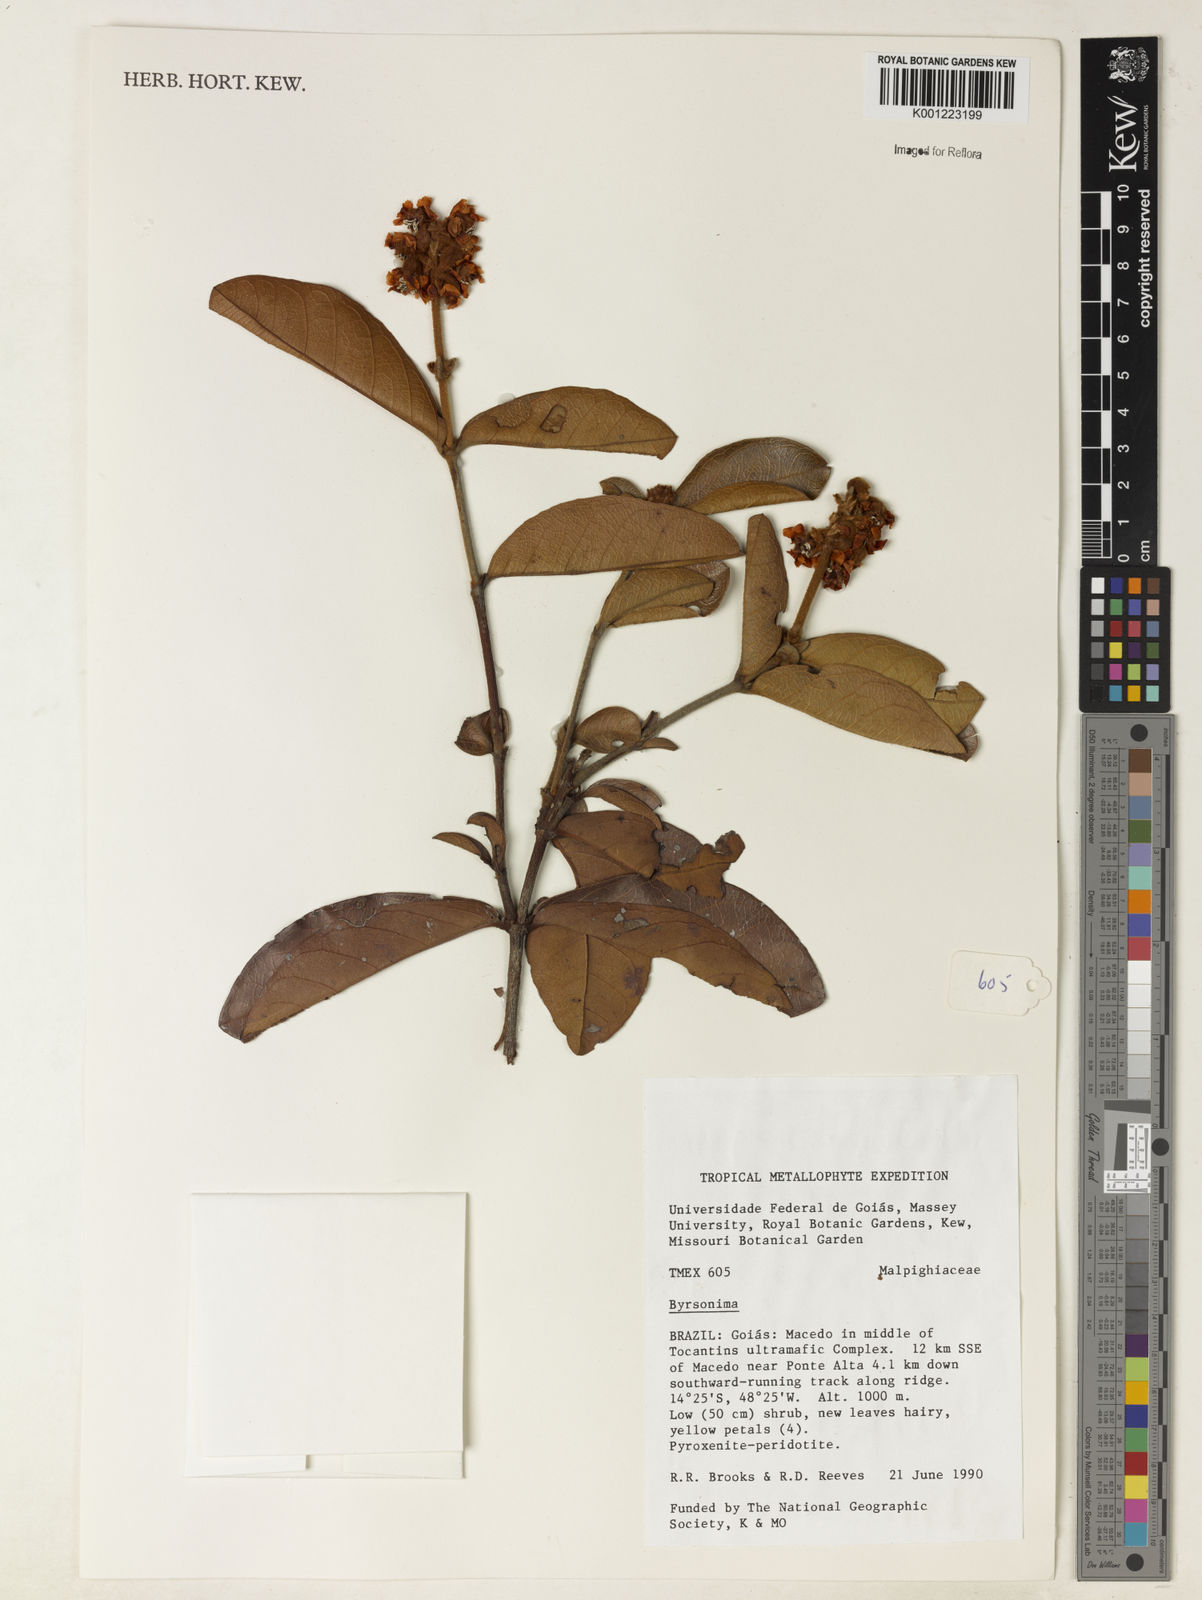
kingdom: Plantae
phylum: Tracheophyta
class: Magnoliopsida
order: Malpighiales
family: Malpighiaceae
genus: Byrsonima
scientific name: Byrsonima
